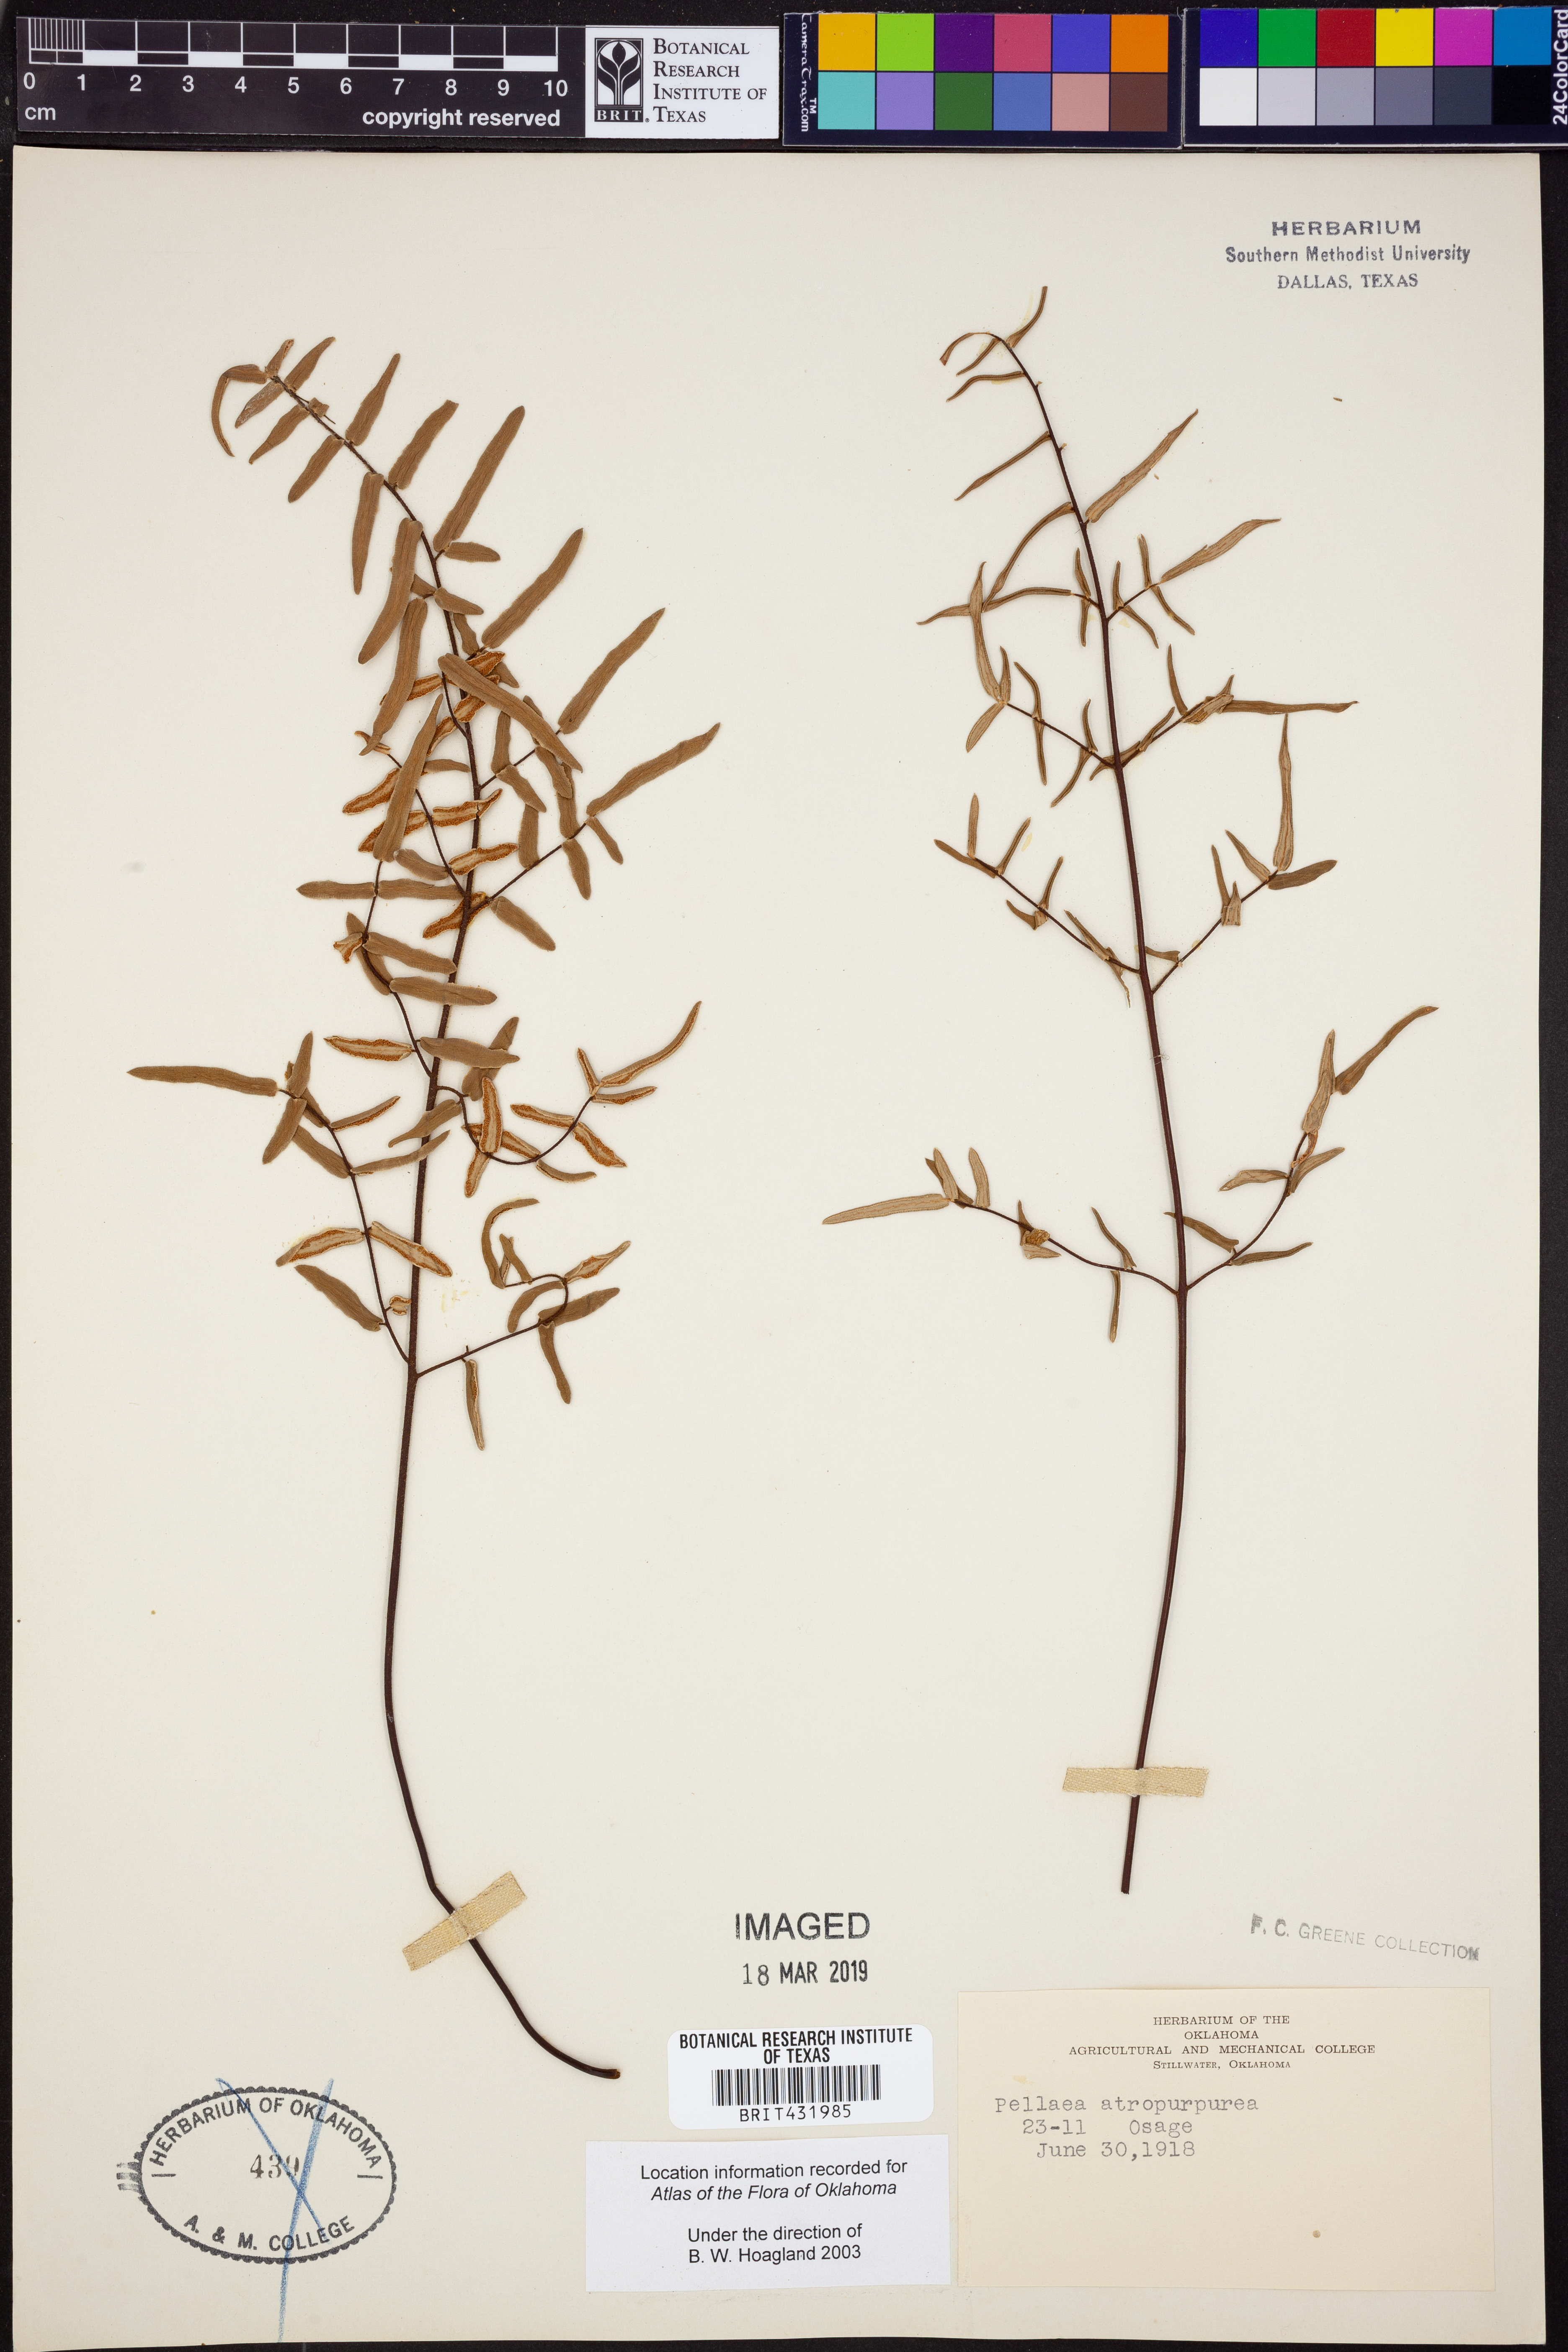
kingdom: Plantae
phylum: Tracheophyta
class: Polypodiopsida
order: Polypodiales
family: Pteridaceae
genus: Pellaea
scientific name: Pellaea atropurpurea
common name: Hairy cliffbrake
